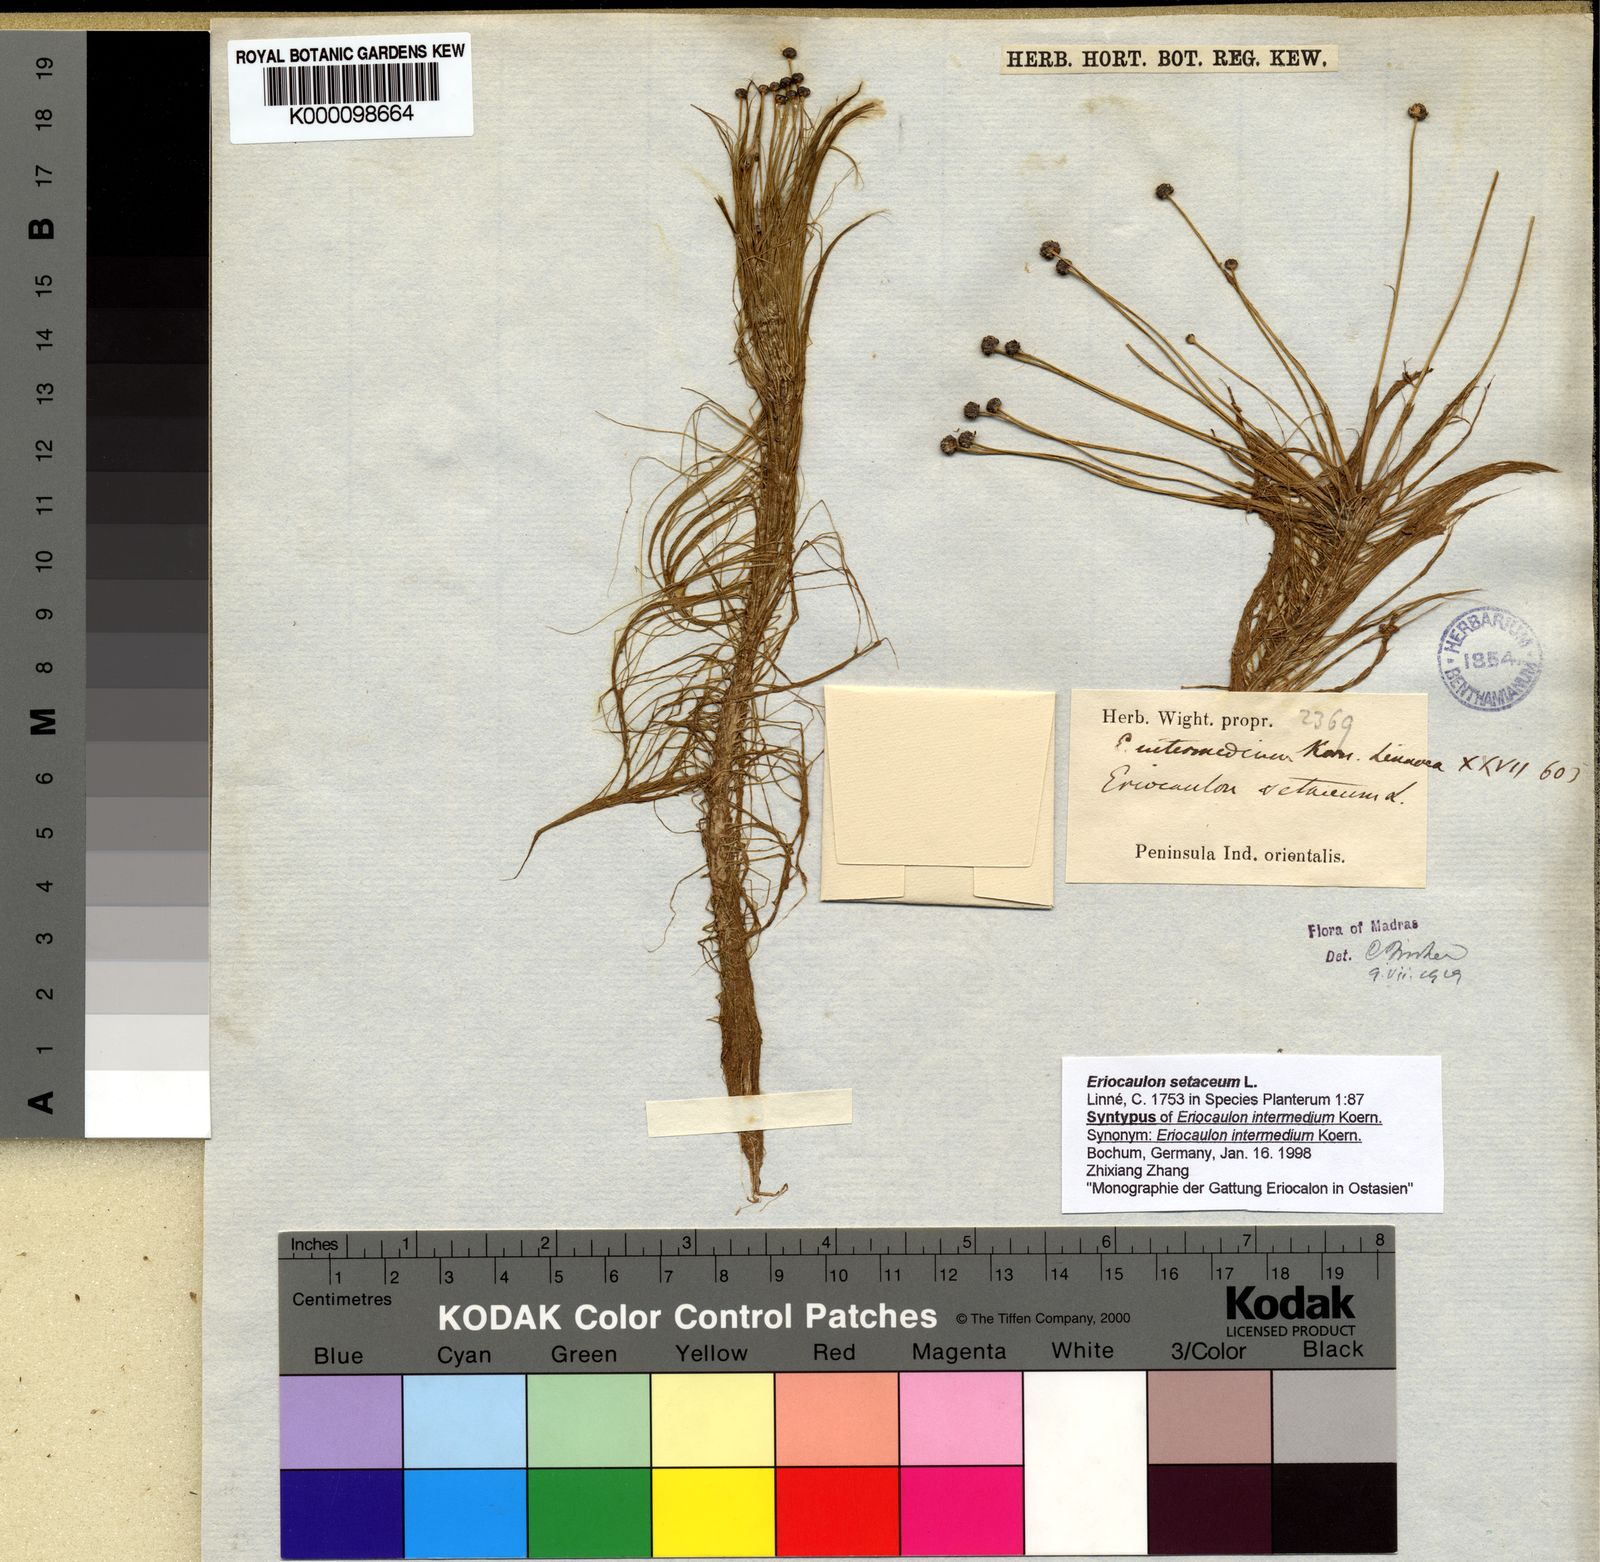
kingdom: Plantae
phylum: Tracheophyta
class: Liliopsida
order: Poales
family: Eriocaulaceae
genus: Eriocaulon
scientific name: Eriocaulon setaceum
